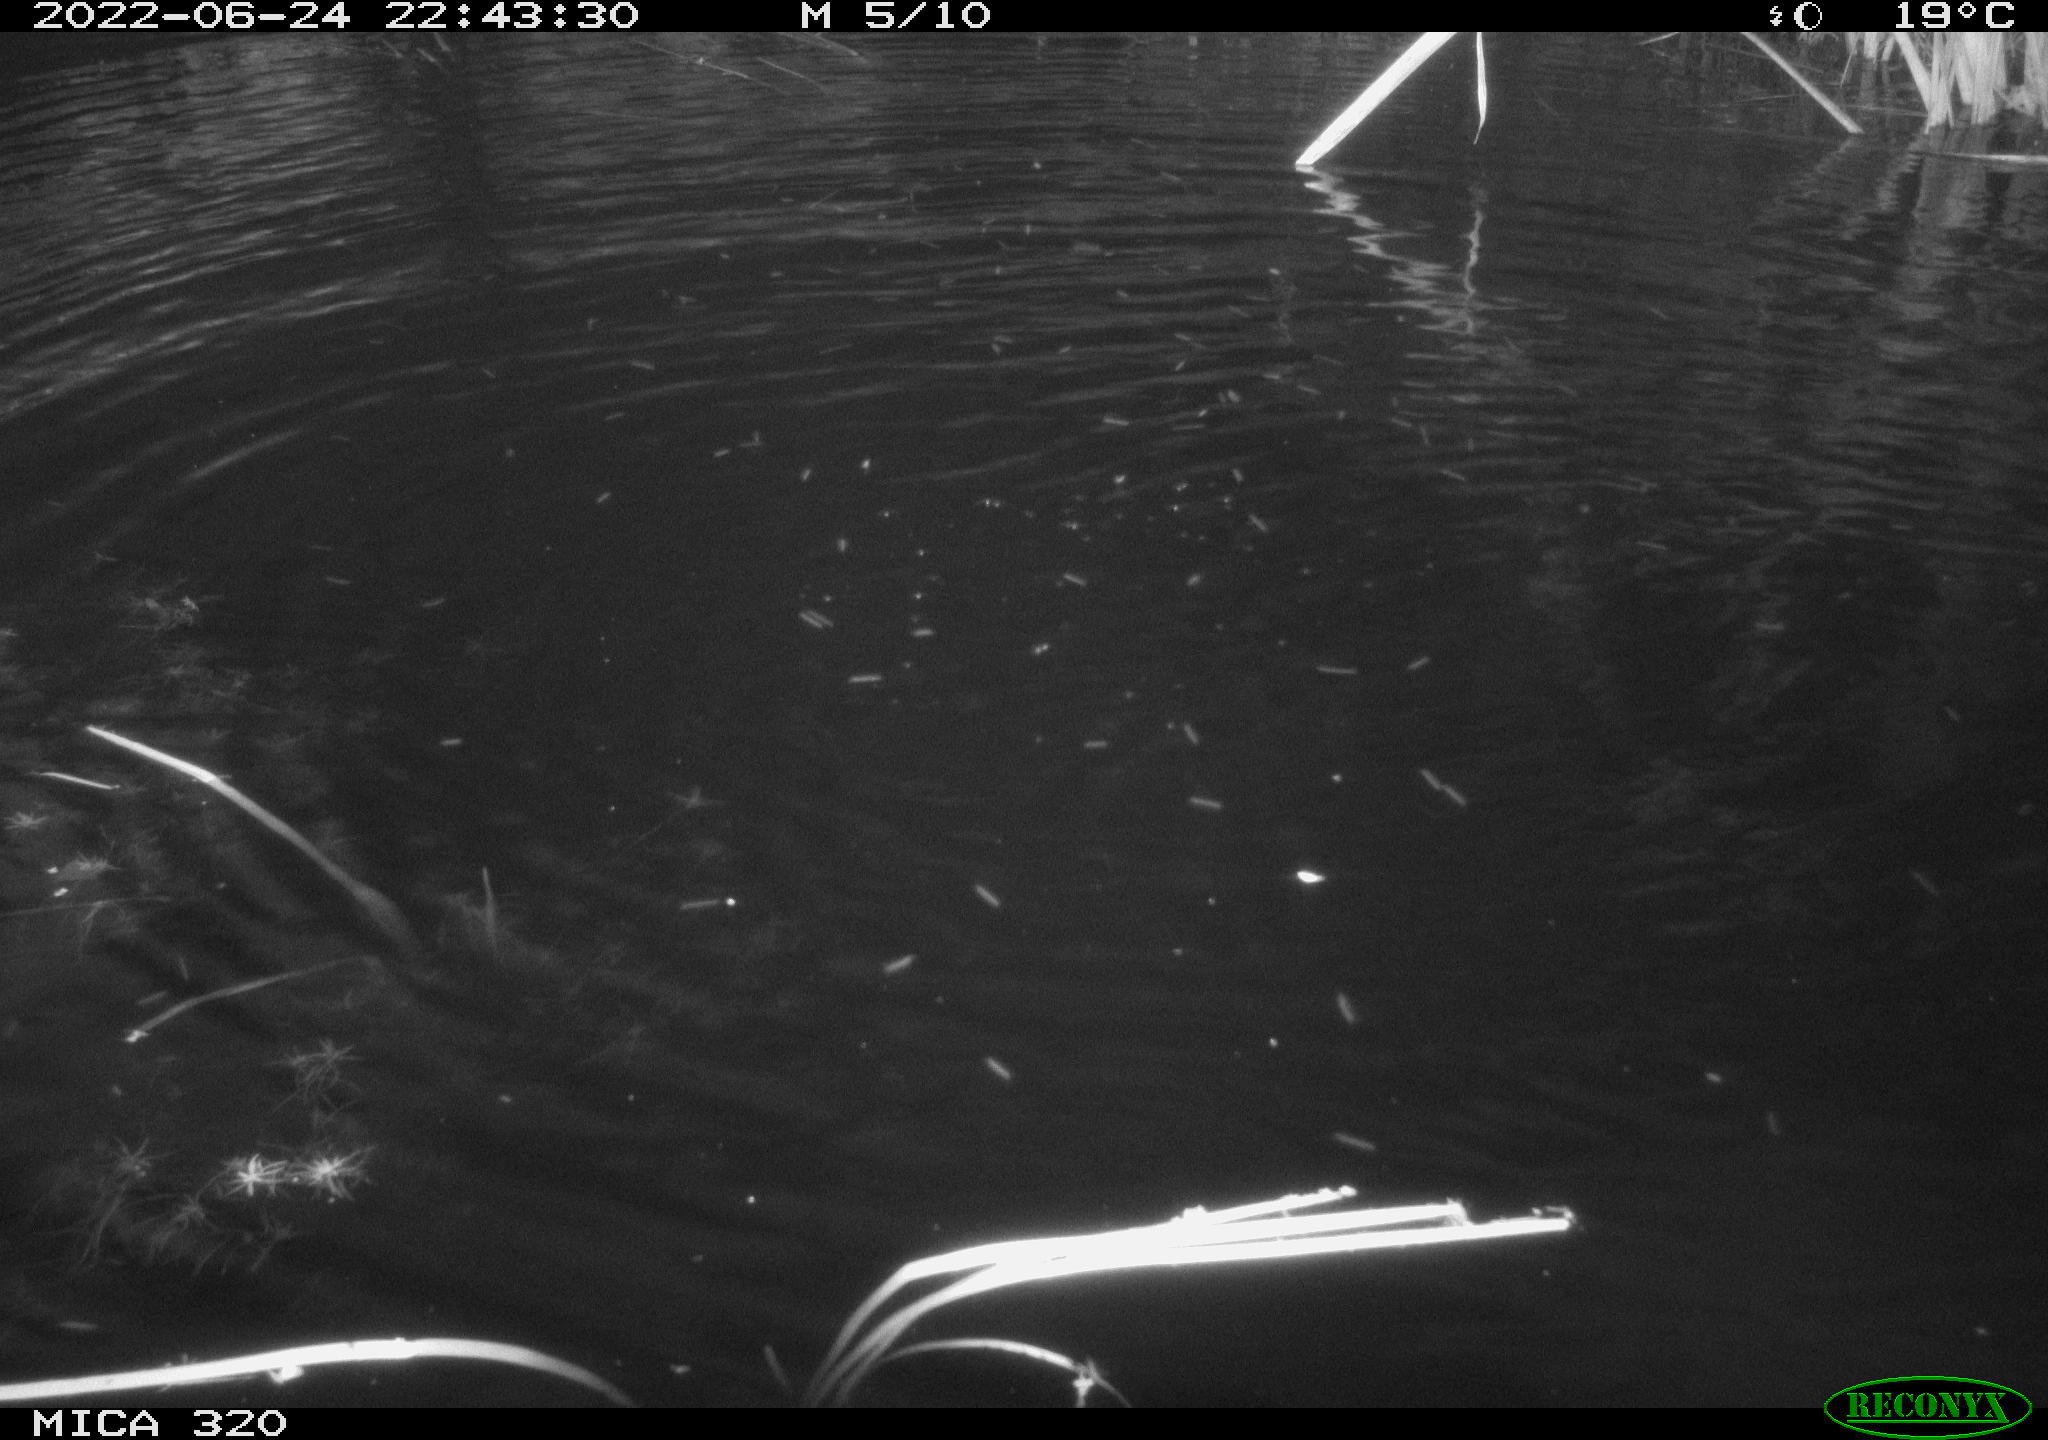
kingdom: Animalia
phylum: Chordata
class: Aves
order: Anseriformes
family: Anatidae
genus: Anas
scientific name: Anas platyrhynchos
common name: Mallard
